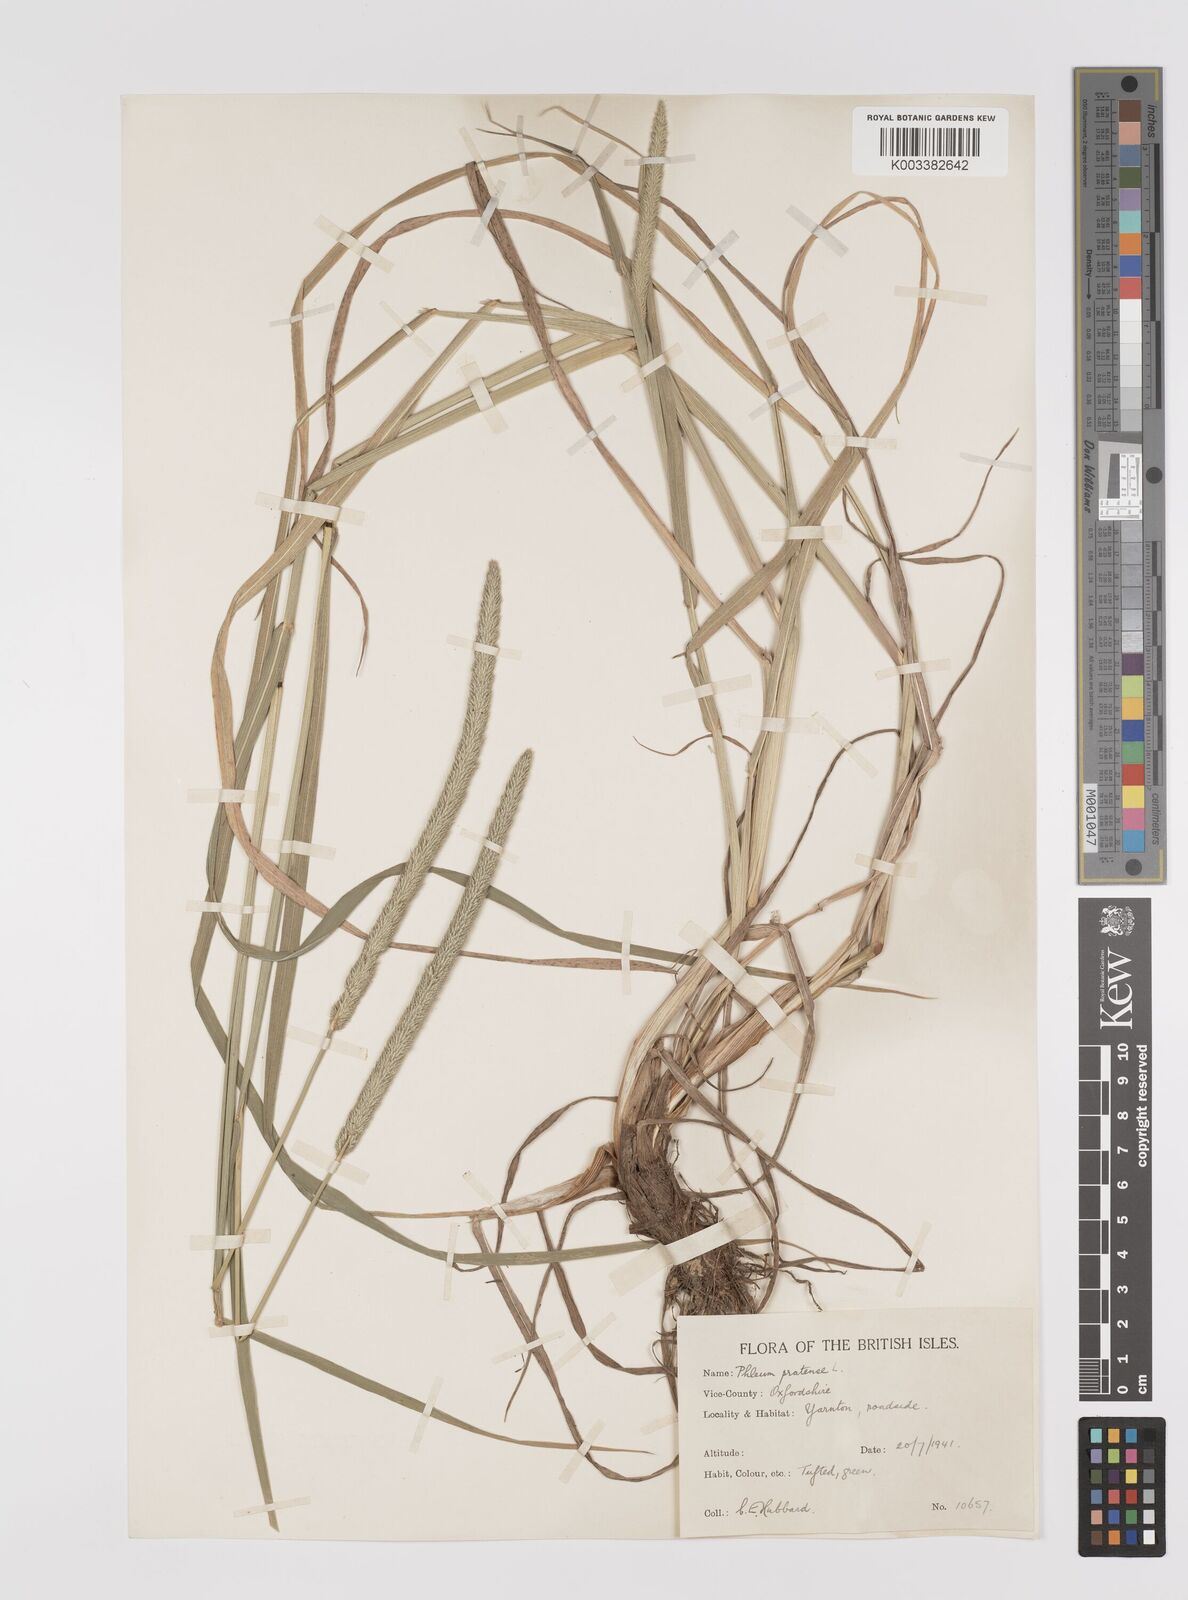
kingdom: Plantae
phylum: Tracheophyta
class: Liliopsida
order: Poales
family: Poaceae
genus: Phleum
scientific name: Phleum pratense
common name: Timothy grass
